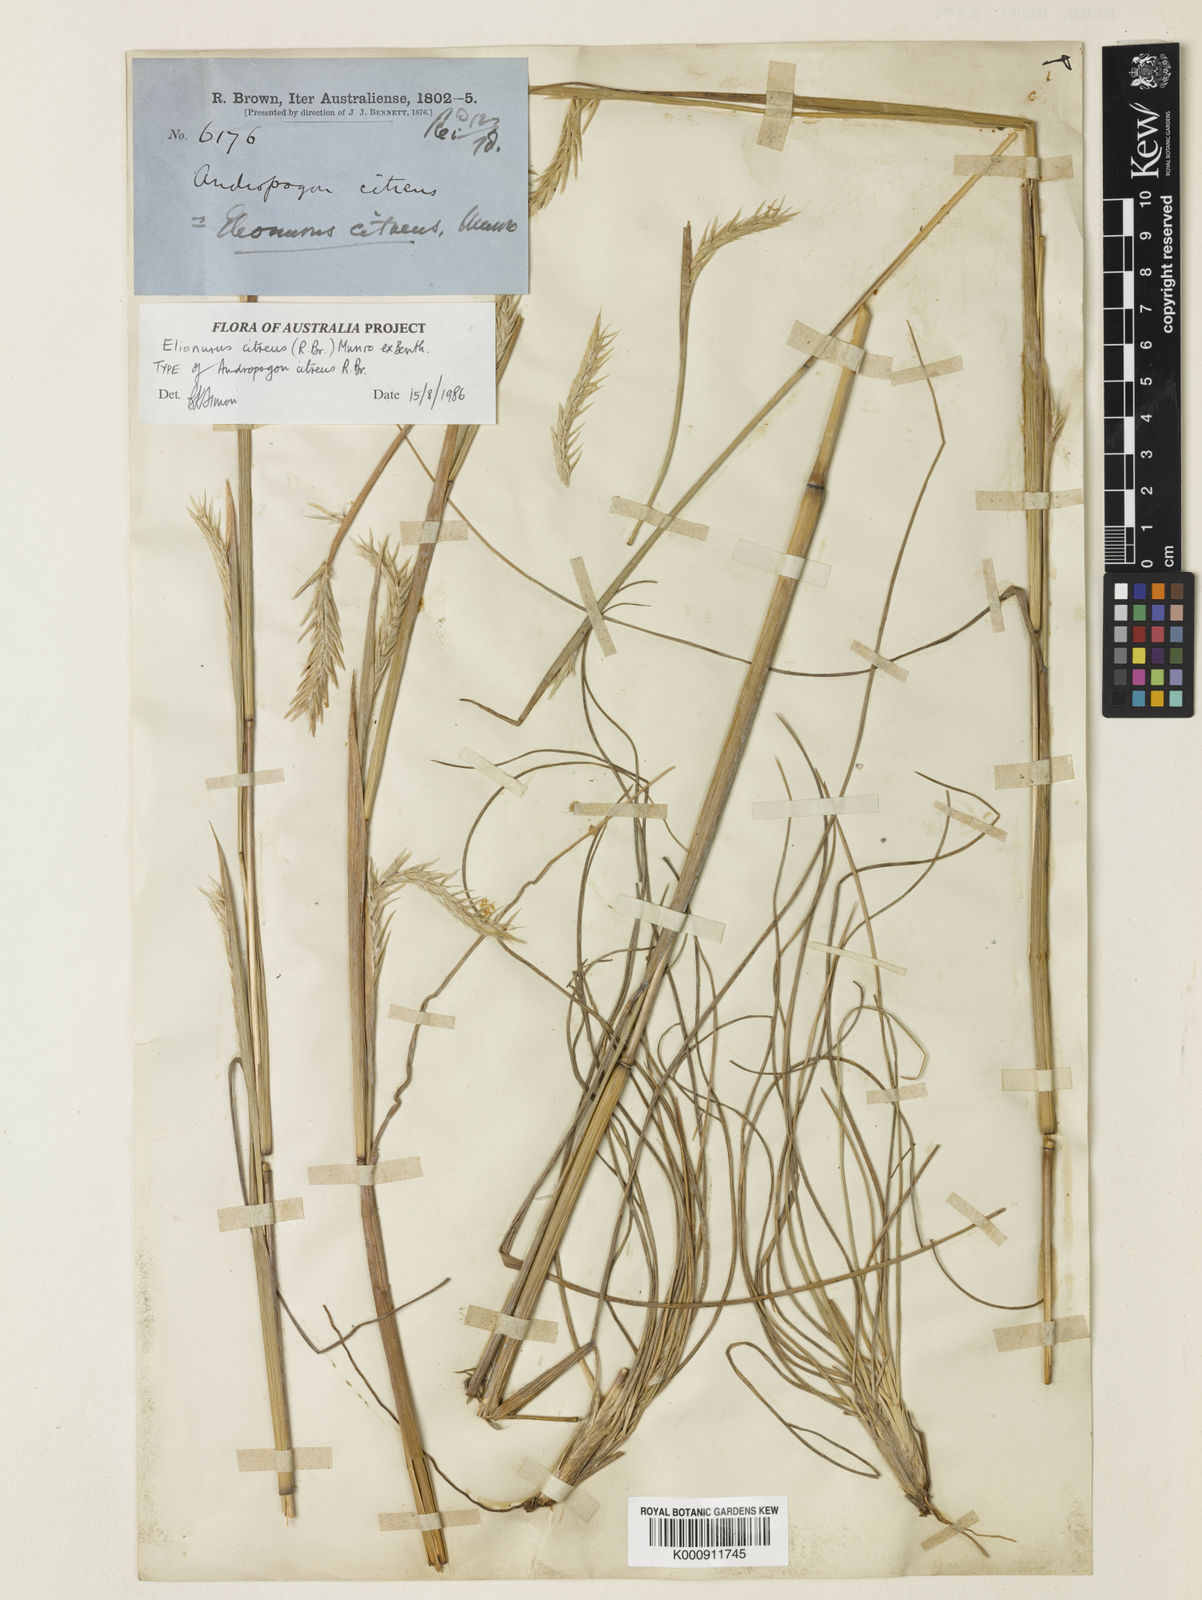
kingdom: Plantae
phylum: Tracheophyta
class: Liliopsida
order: Poales
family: Poaceae
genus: Elionurus
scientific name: Elionurus citreus
